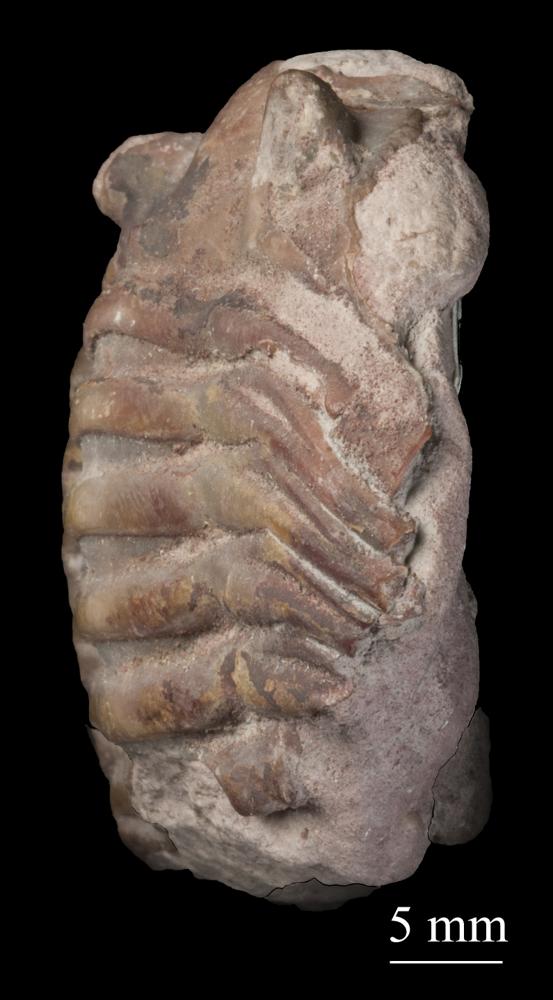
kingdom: Animalia
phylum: Arthropoda
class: Trilobita
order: Asaphida
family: Asaphidae
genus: Asaphus
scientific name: Asaphus expansus
